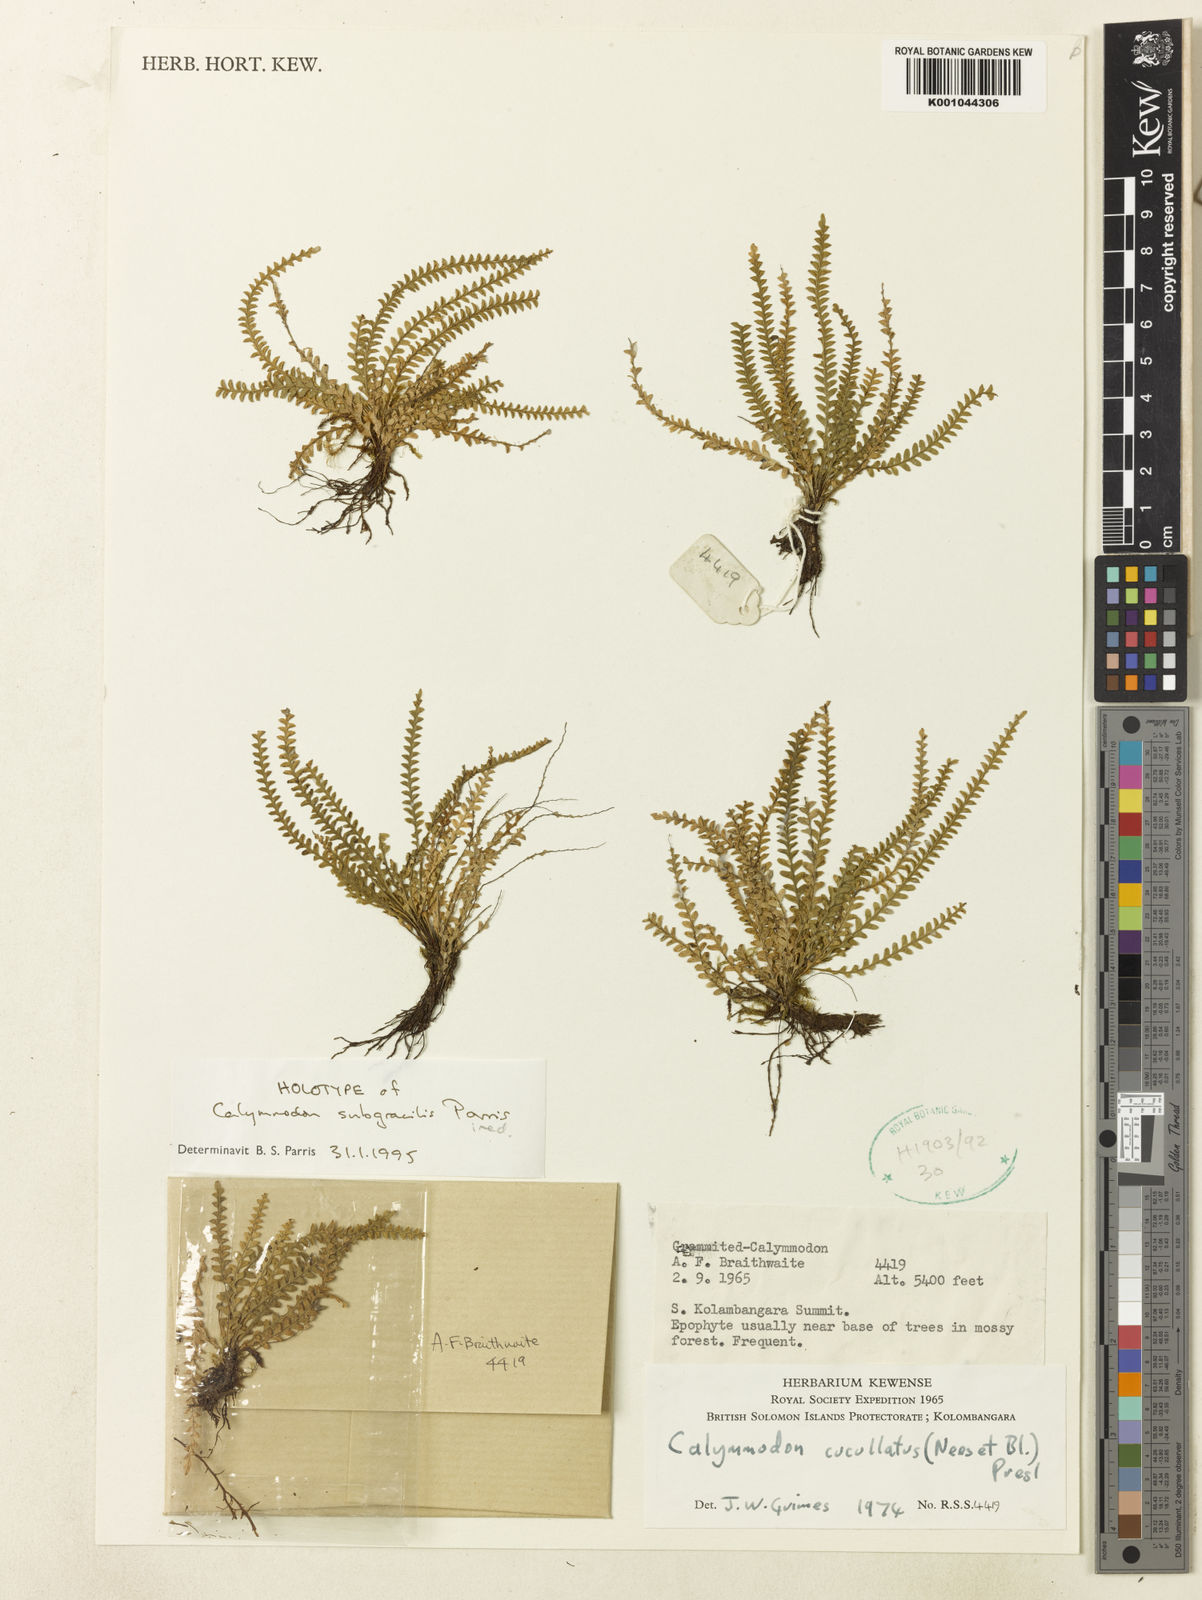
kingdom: Plantae
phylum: Tracheophyta
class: Polypodiopsida
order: Polypodiales
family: Polypodiaceae
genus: Calymmodon
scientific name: Calymmodon
